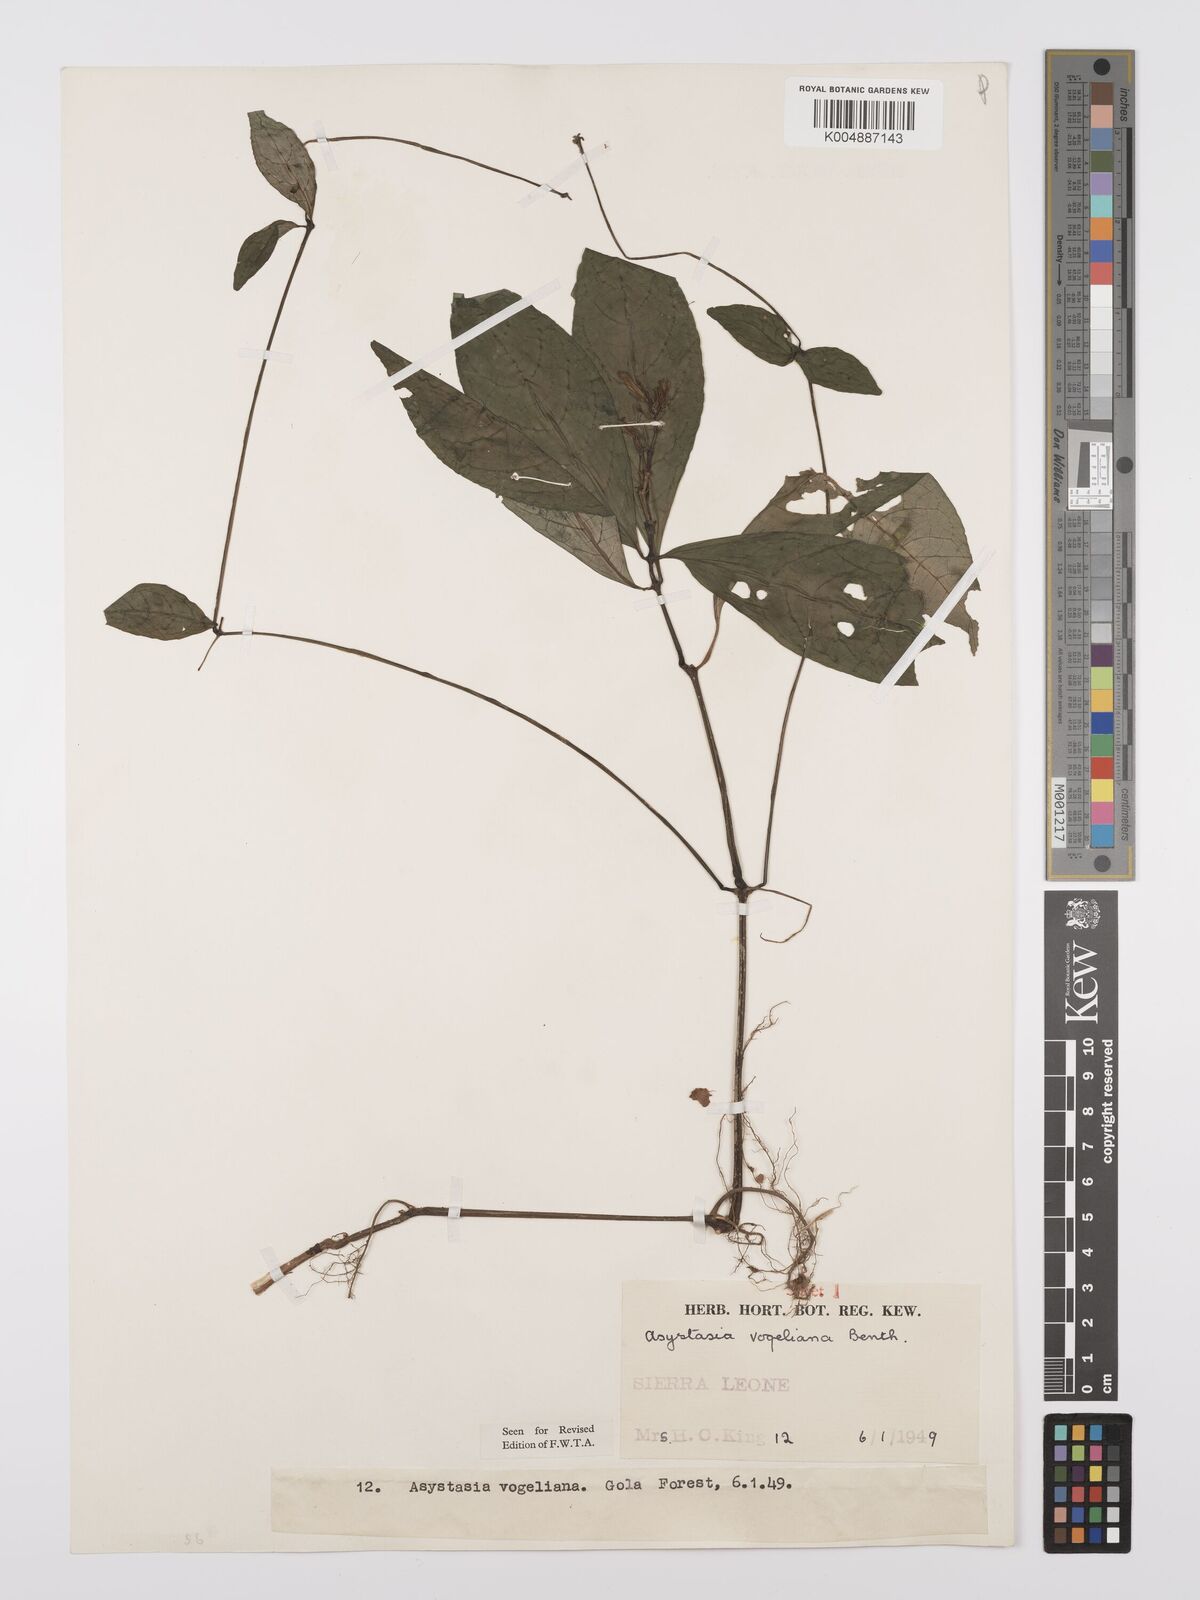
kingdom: Plantae
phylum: Tracheophyta
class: Magnoliopsida
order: Lamiales
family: Acanthaceae
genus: Asystasia
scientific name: Asystasia vogeliana
